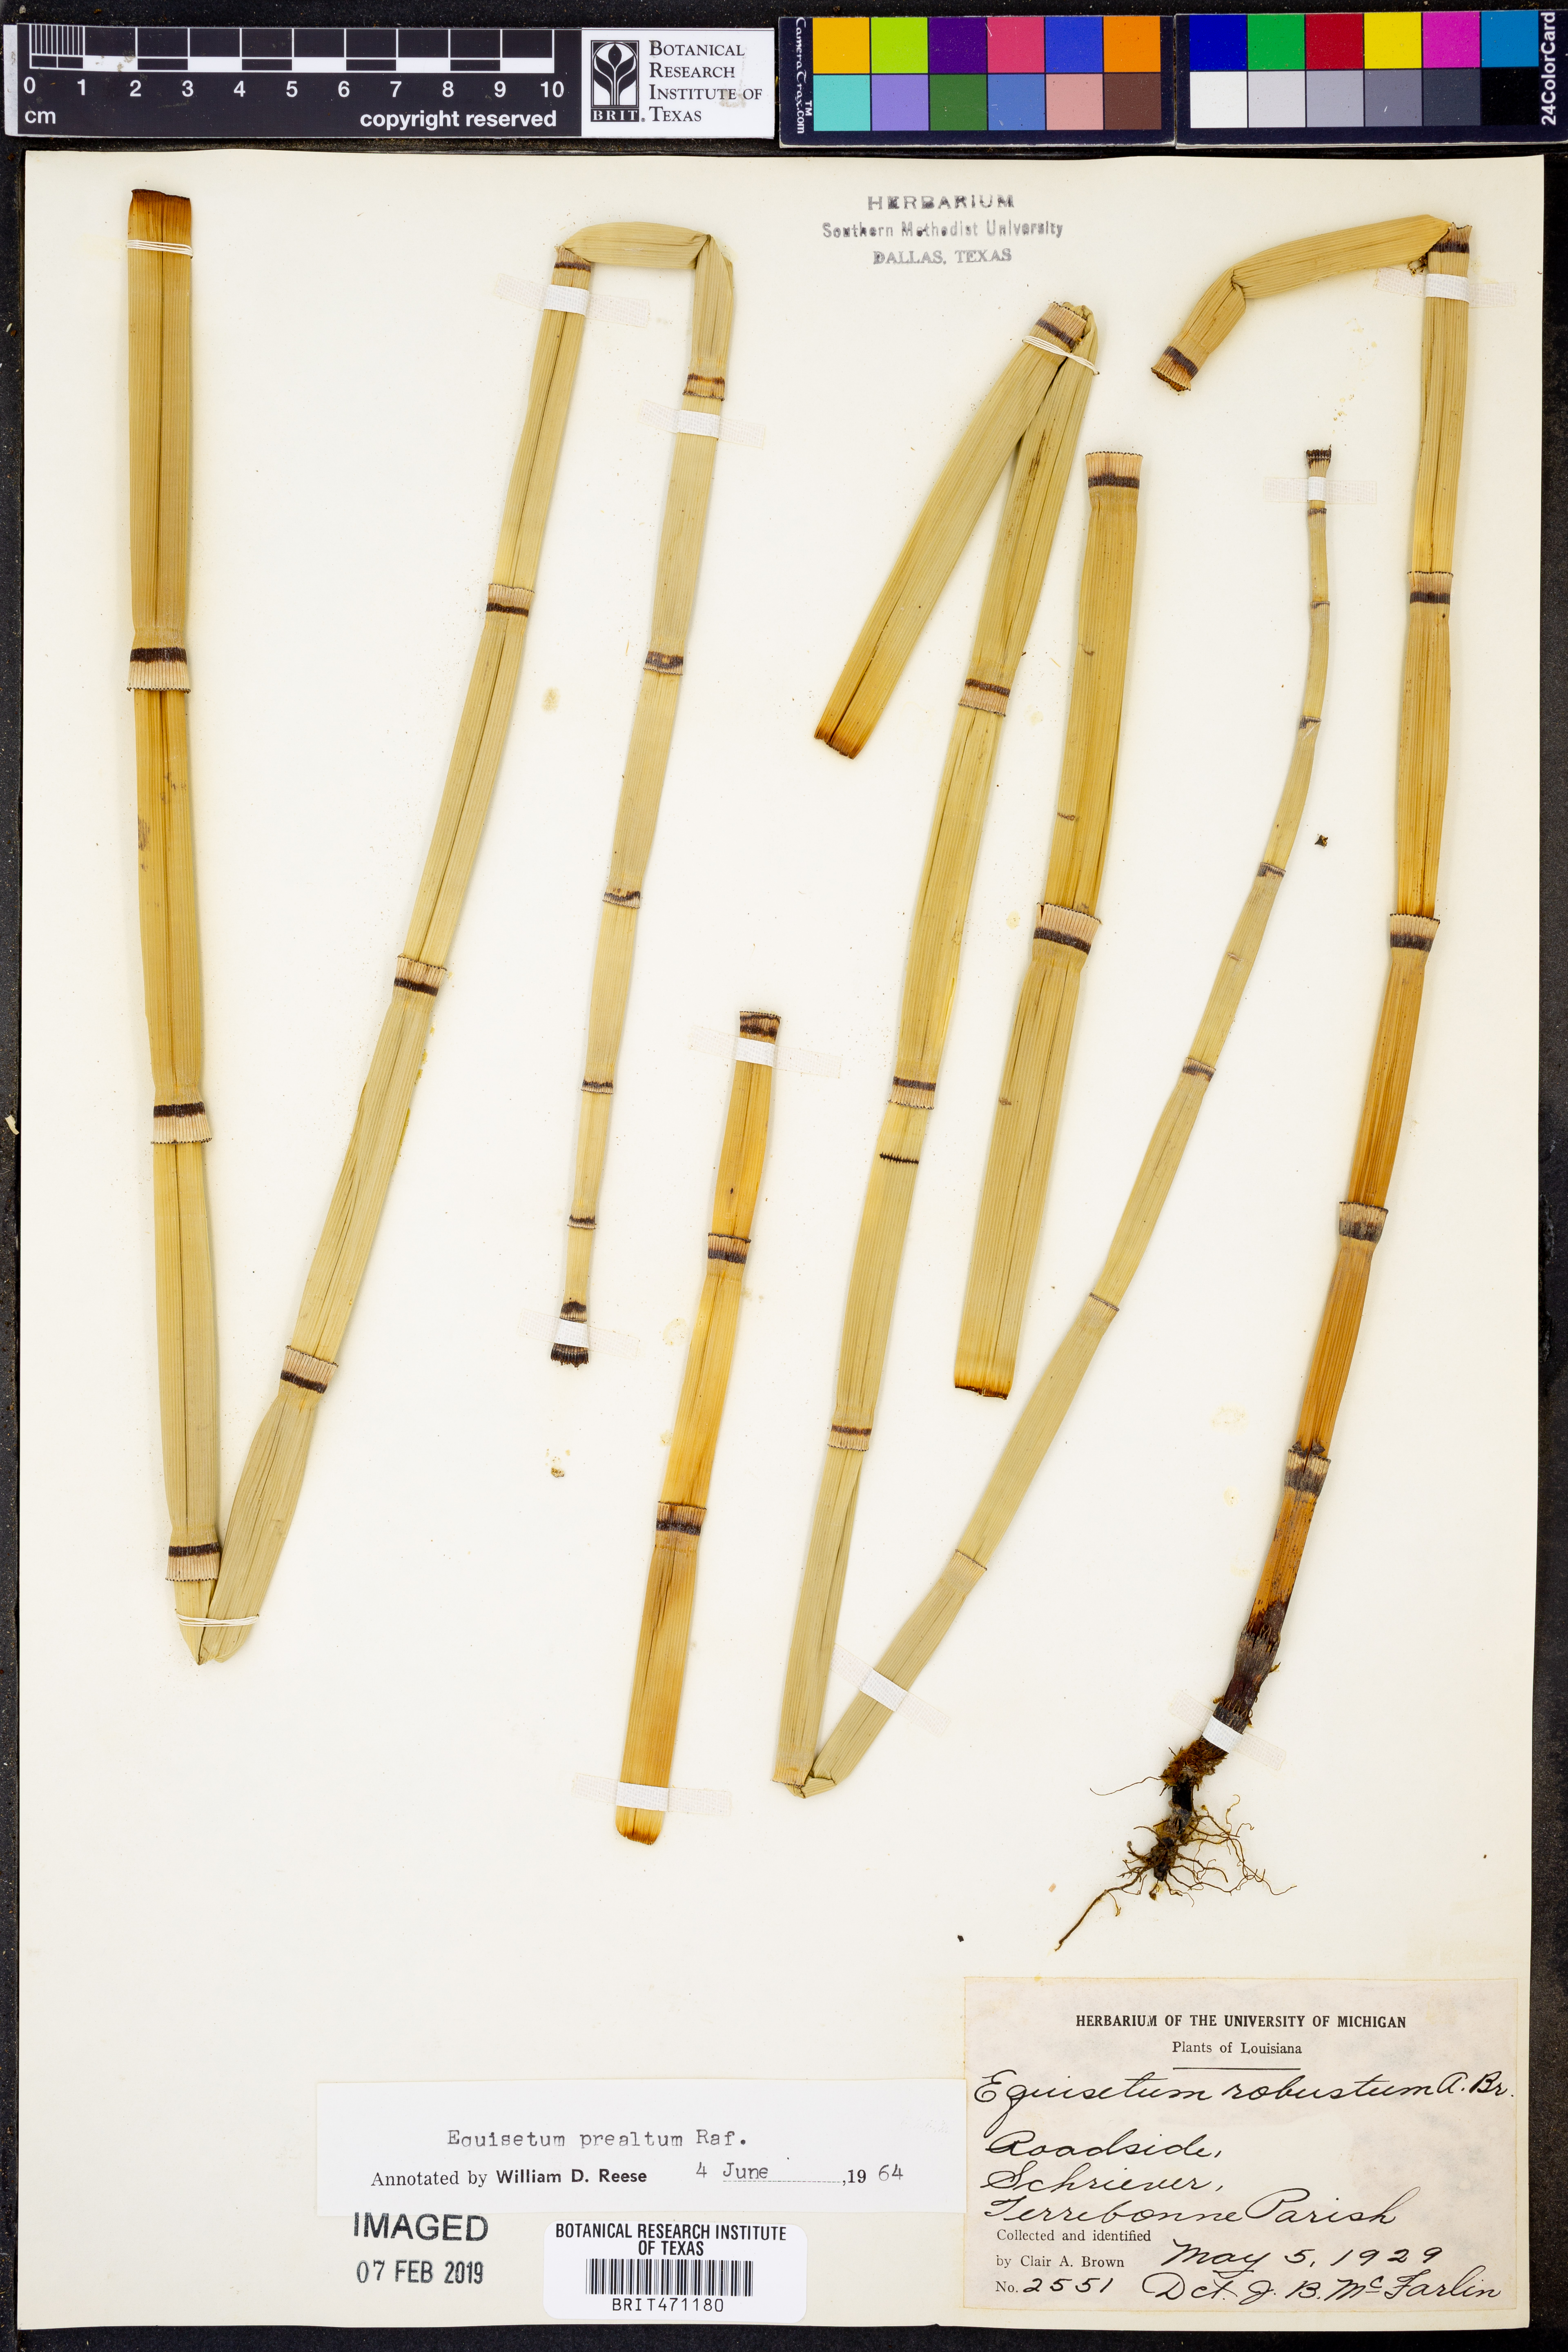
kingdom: Plantae
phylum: Tracheophyta
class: Polypodiopsida
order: Equisetales
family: Equisetaceae
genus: Equisetum
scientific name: Equisetum praealtum
